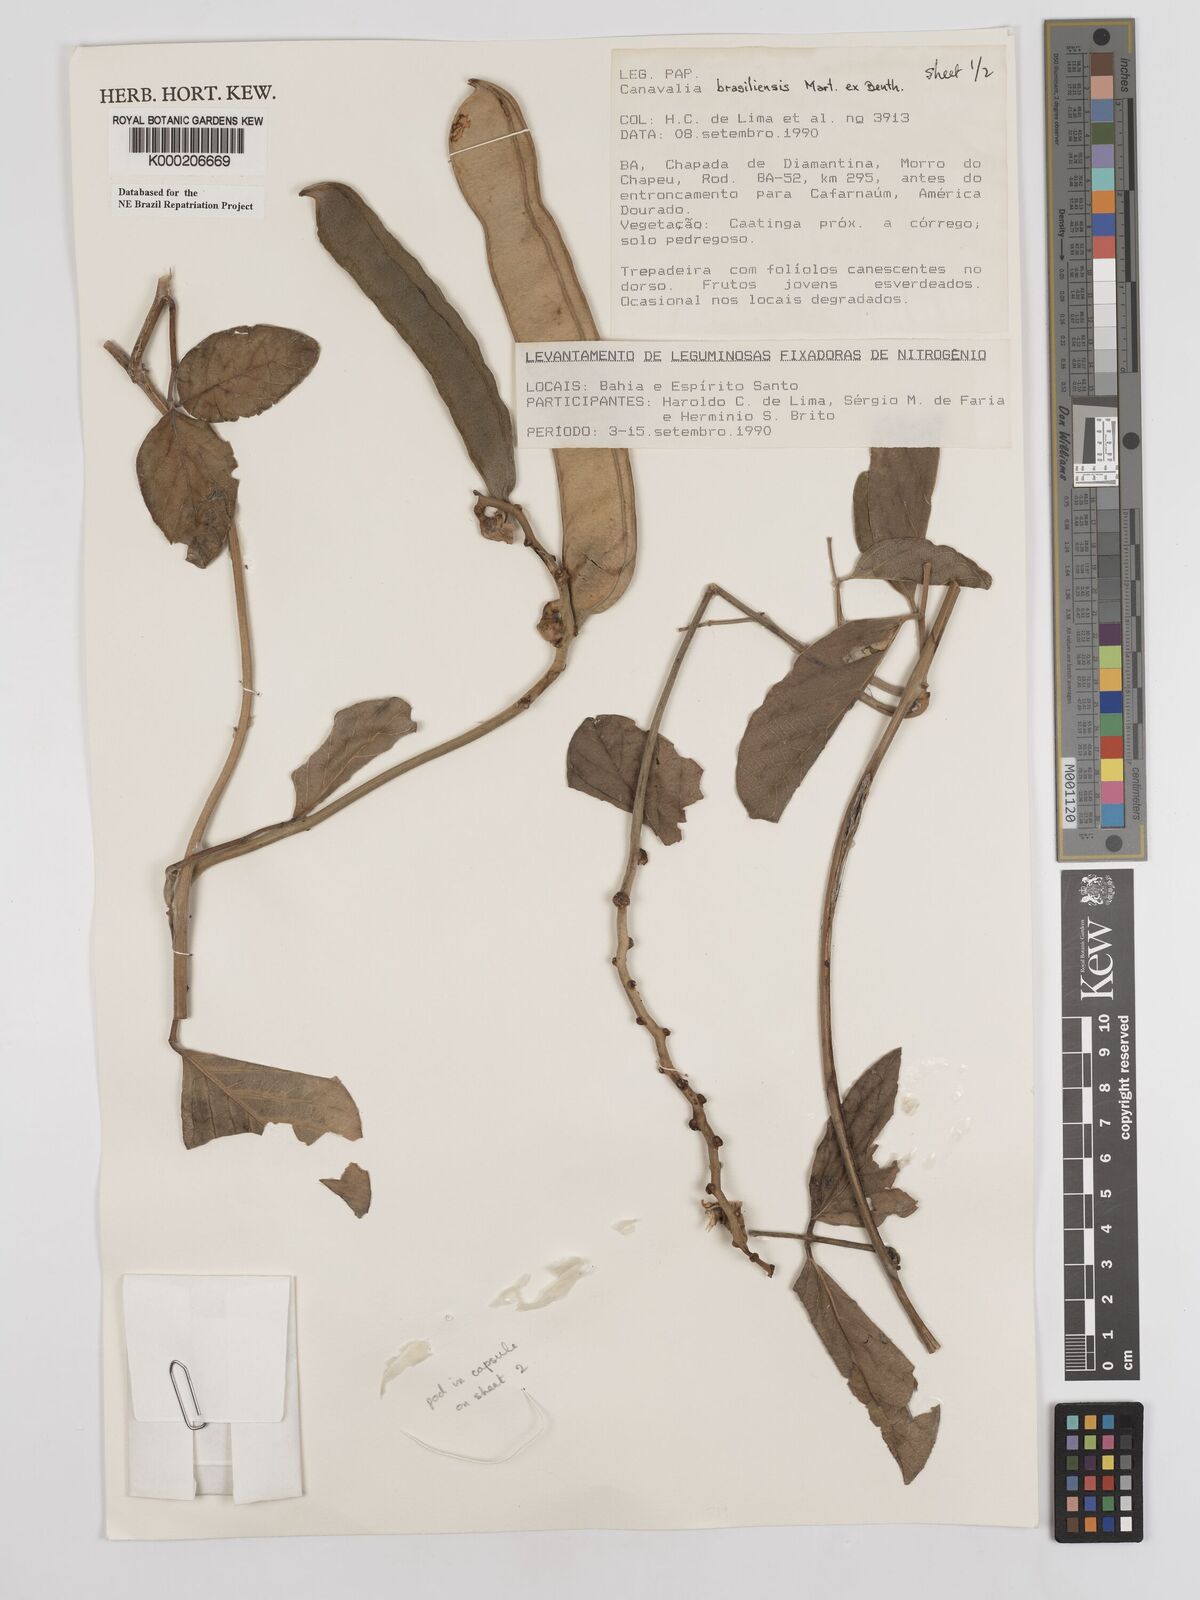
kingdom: Plantae
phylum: Tracheophyta
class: Magnoliopsida
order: Fabales
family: Fabaceae
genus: Canavalia
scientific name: Canavalia brasiliensis
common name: Barbicou-bean
